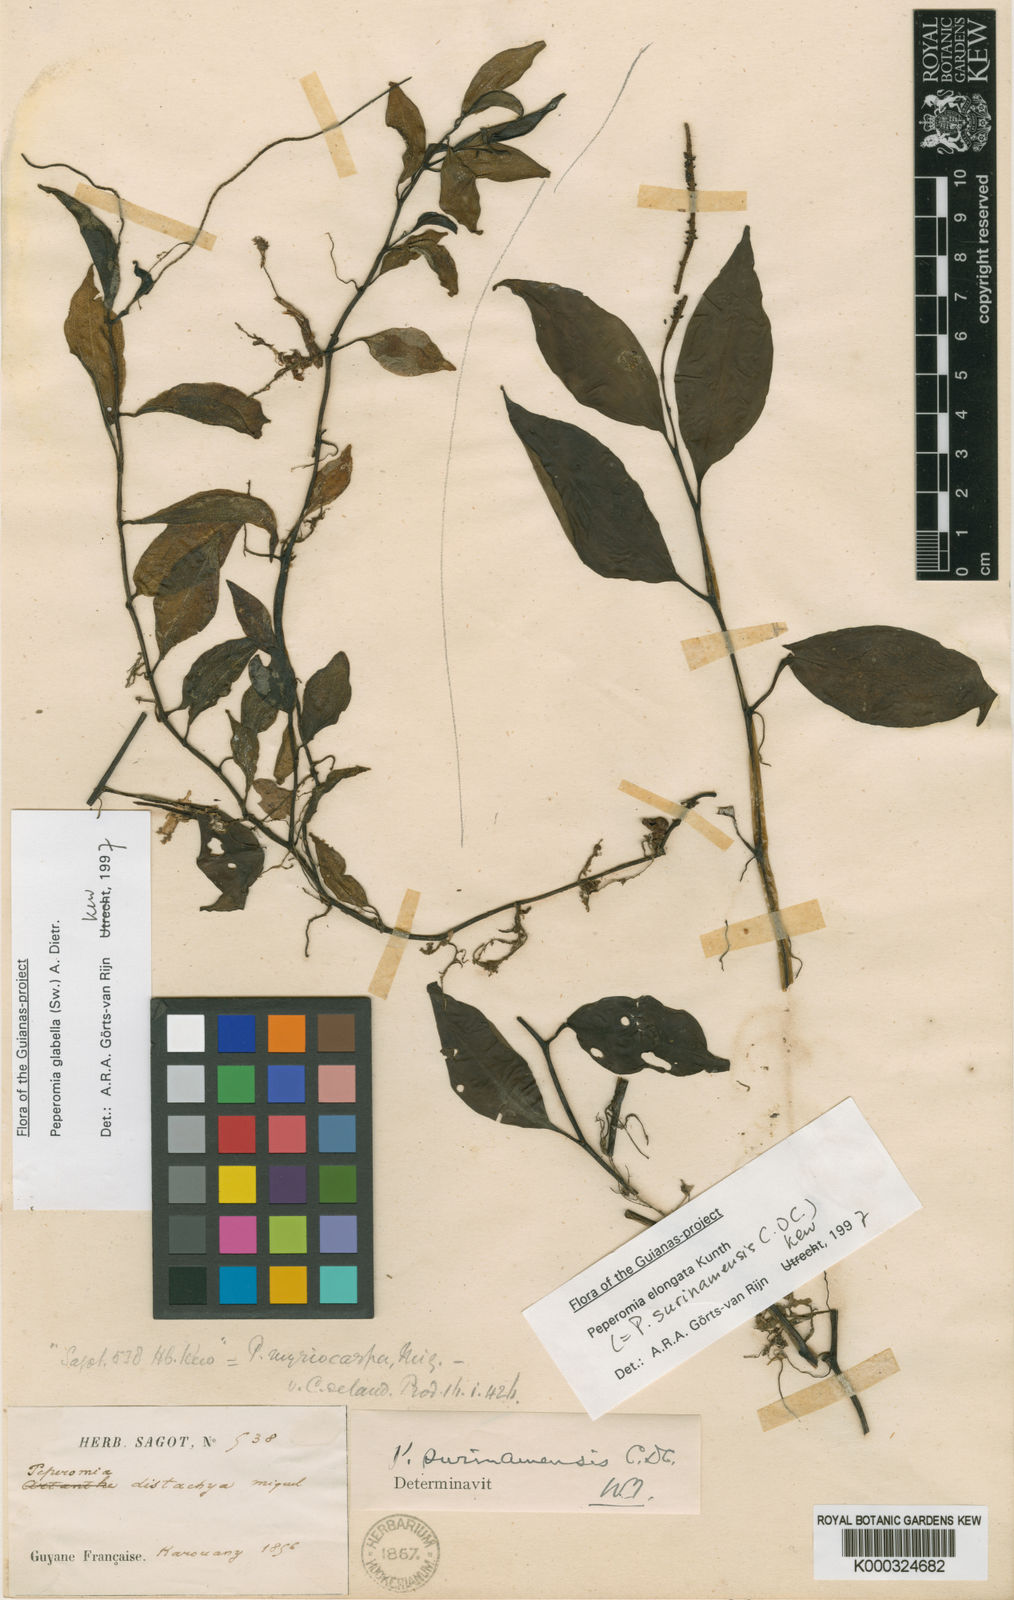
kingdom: Plantae
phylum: Tracheophyta
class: Magnoliopsida
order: Piperales
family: Piperaceae
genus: Peperomia
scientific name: Peperomia
